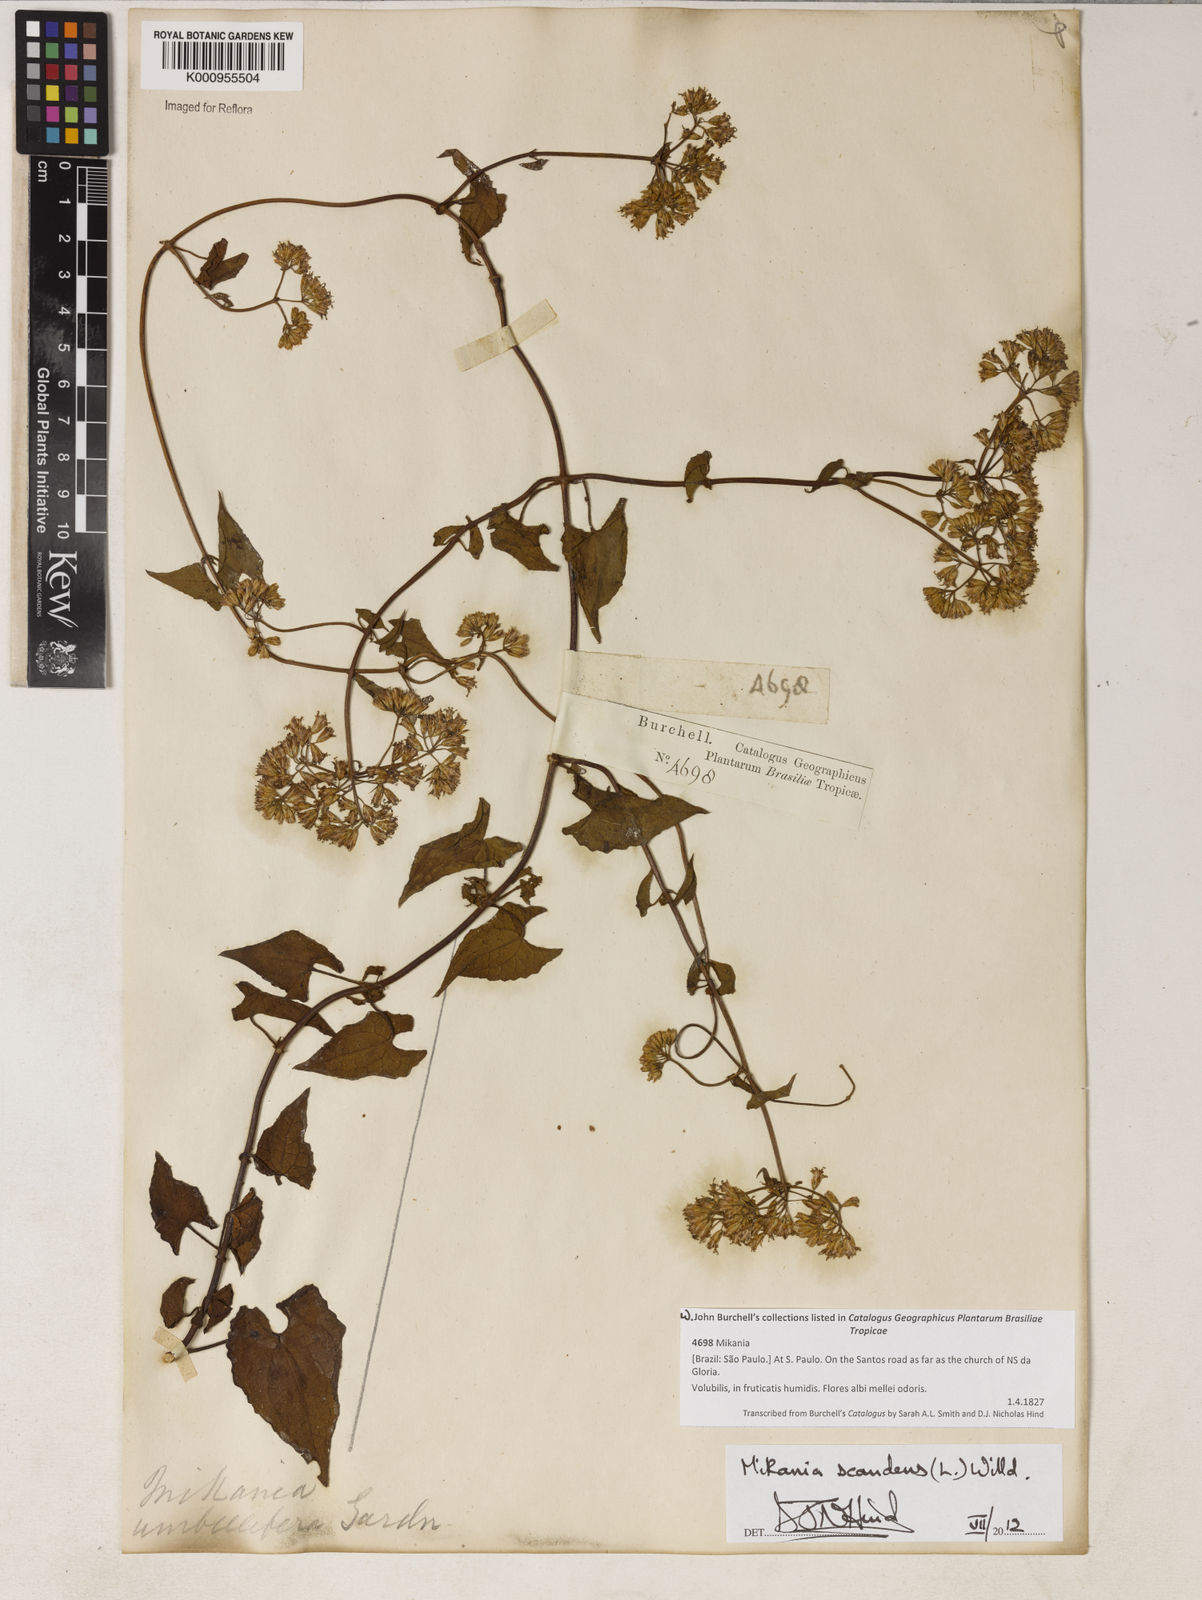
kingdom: Plantae
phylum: Tracheophyta
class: Magnoliopsida
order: Asterales
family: Asteraceae
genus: Mikania
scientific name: Mikania scandens
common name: Climbing hempvine
